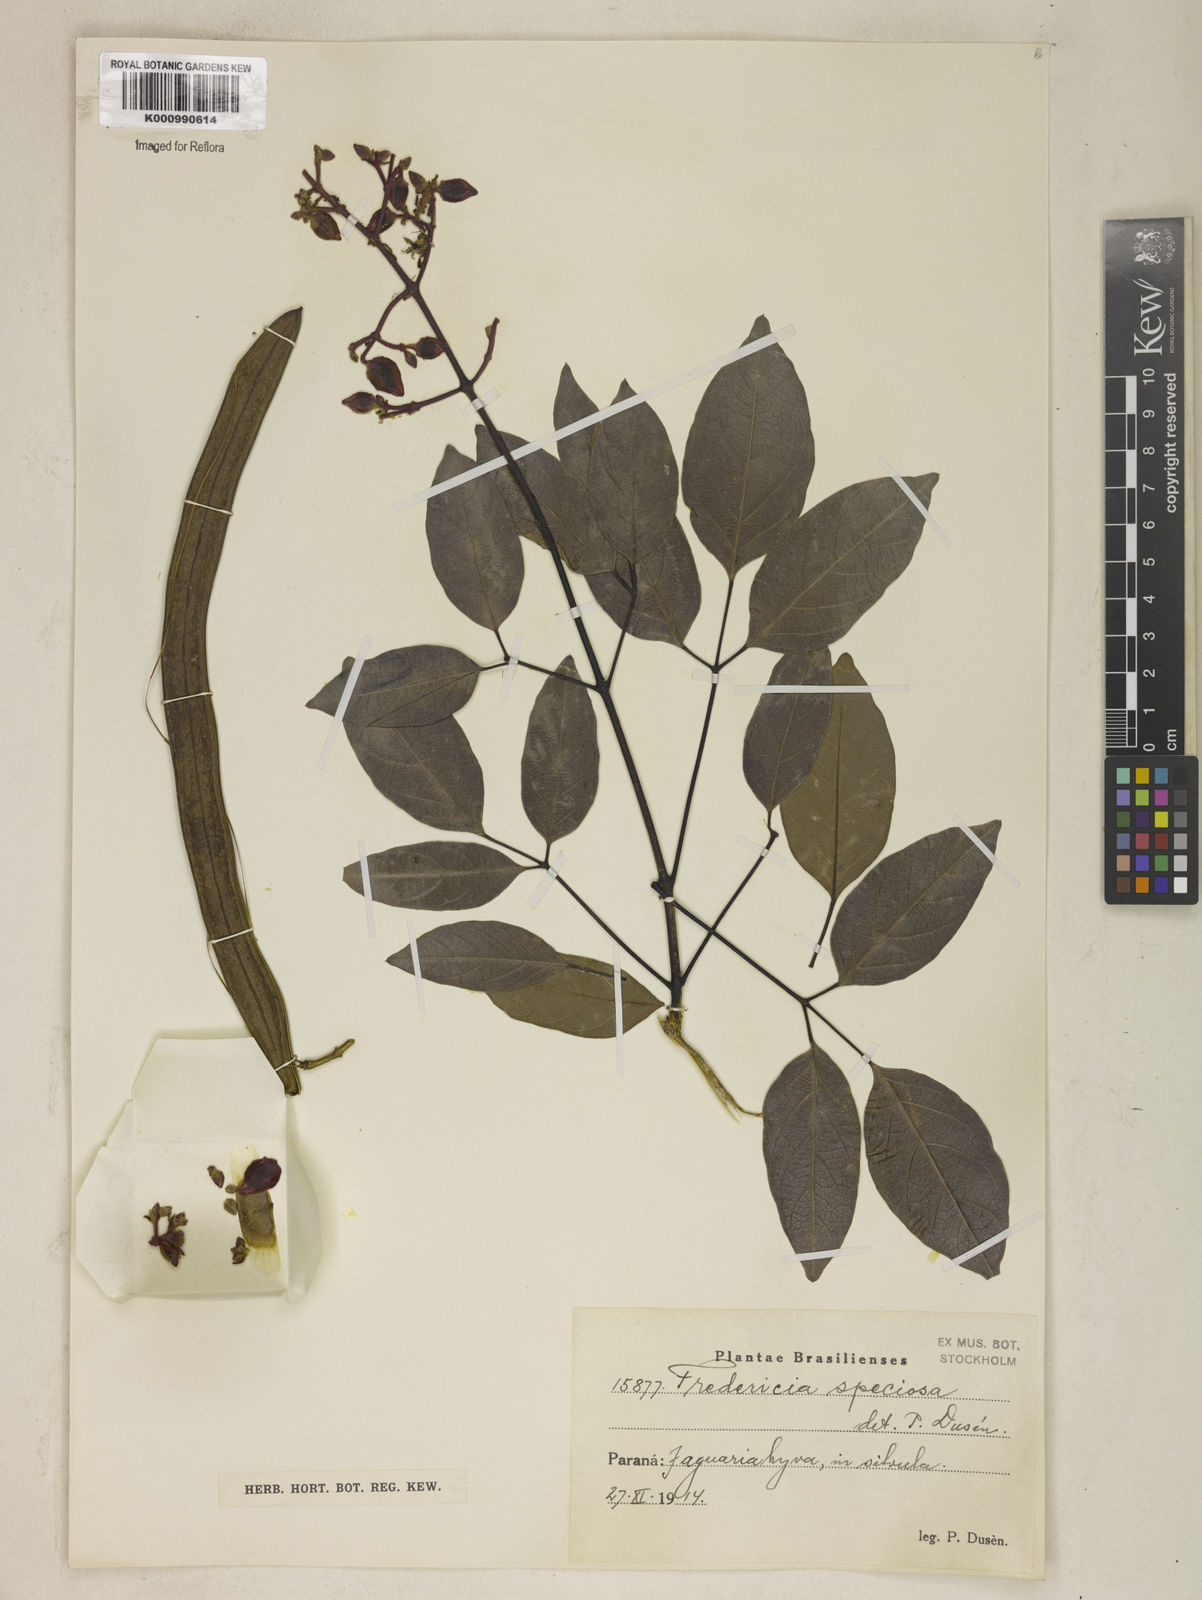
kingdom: Plantae
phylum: Tracheophyta
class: Magnoliopsida
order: Lamiales
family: Bignoniaceae
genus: Fridericia
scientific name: Fridericia speciosa
